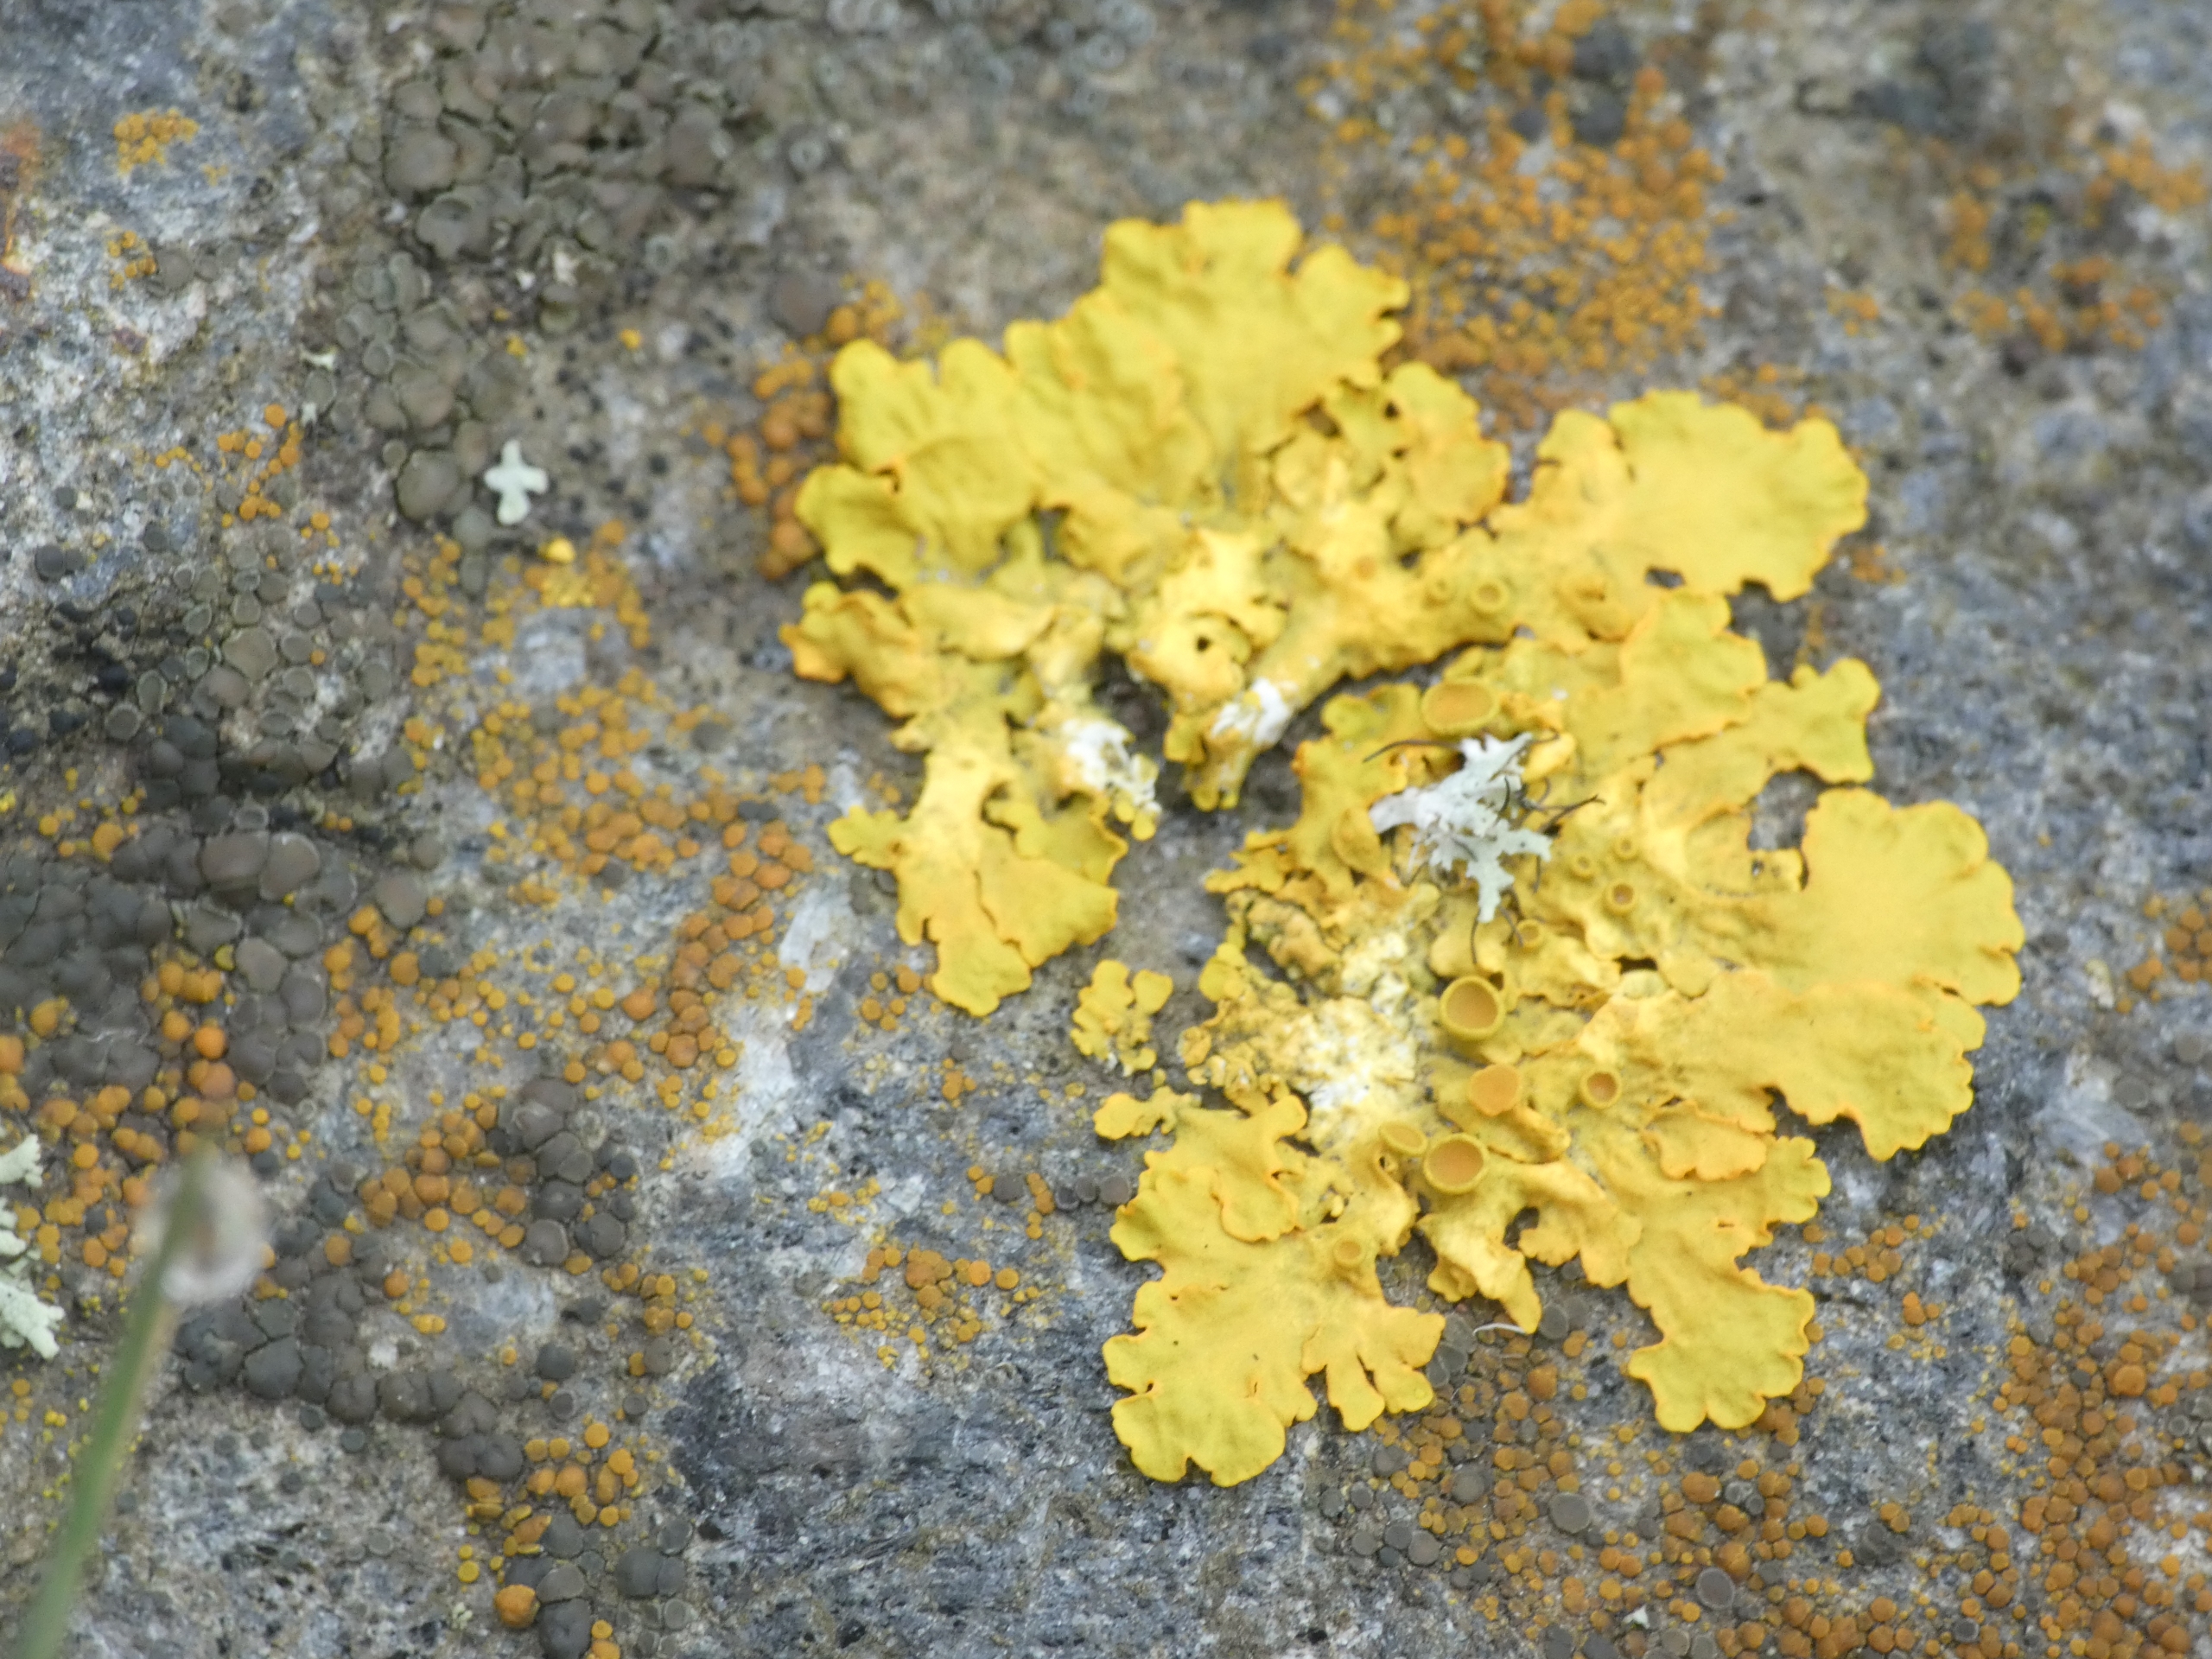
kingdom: Fungi
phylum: Ascomycota
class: Lecanoromycetes
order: Teloschistales
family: Teloschistaceae
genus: Xanthoria
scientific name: Xanthoria parietina
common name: Almindelig væggelav
